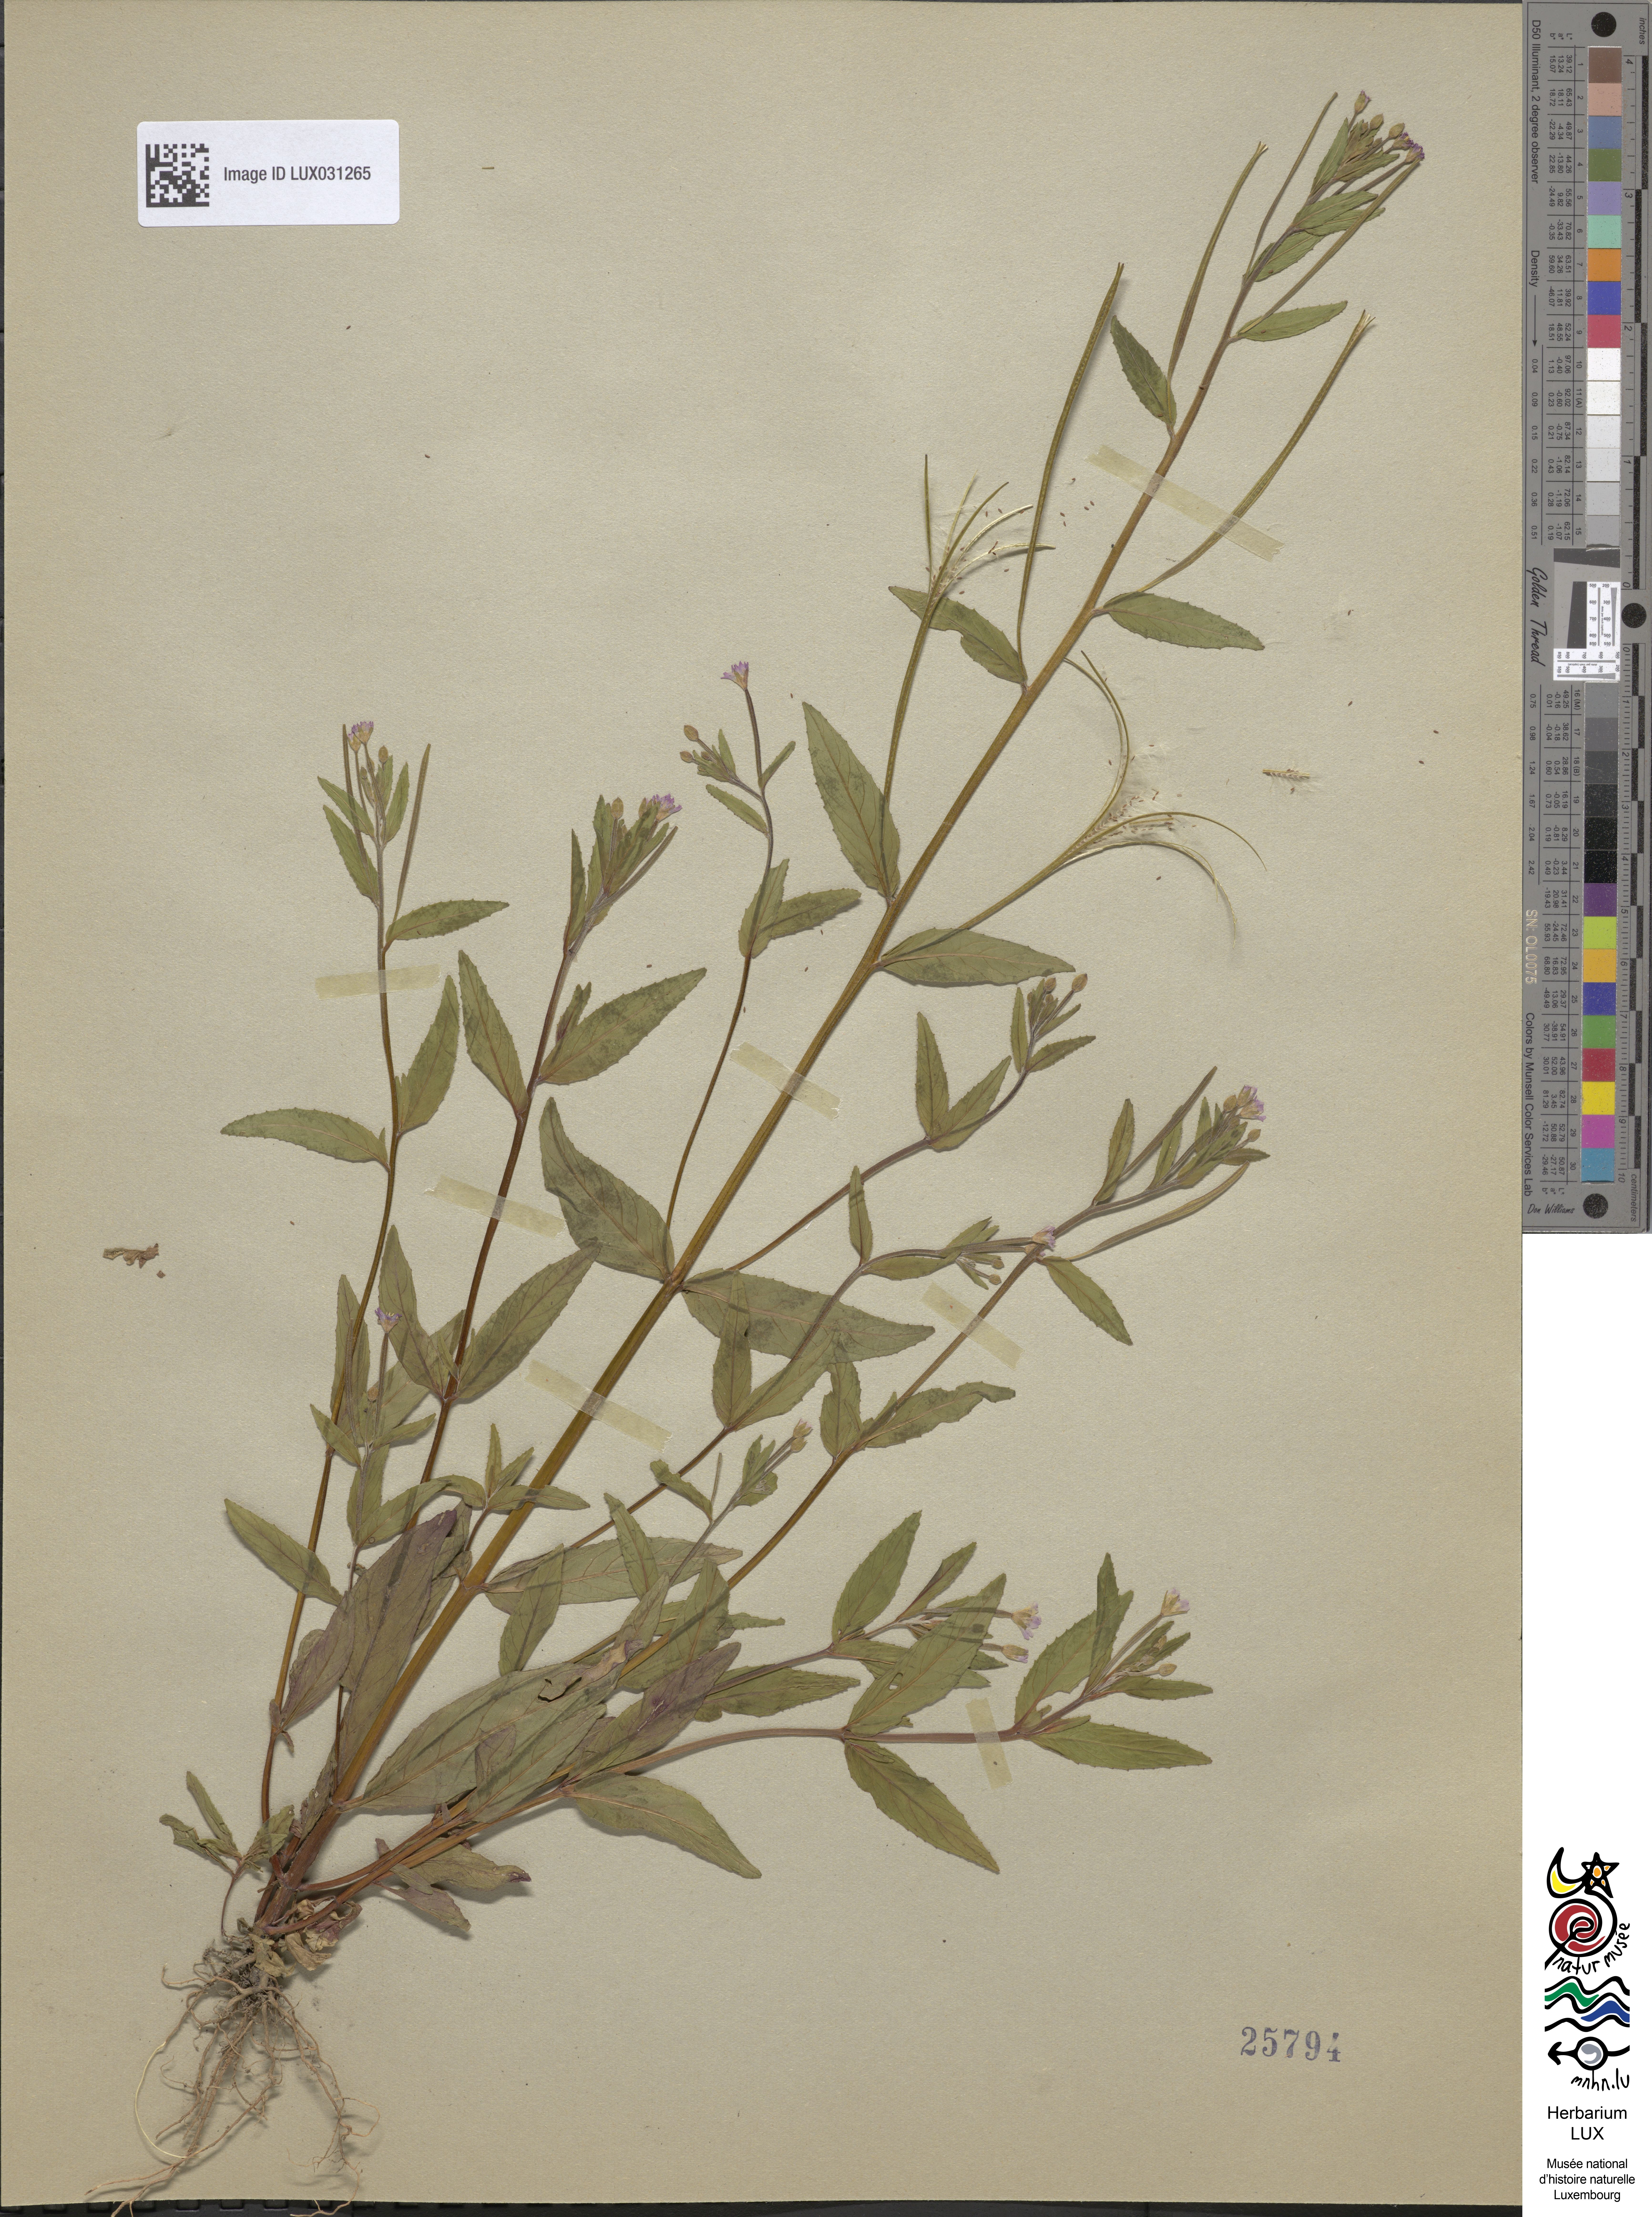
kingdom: Plantae
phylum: Tracheophyta
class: Magnoliopsida
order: Myrtales
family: Onagraceae
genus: Epilobium
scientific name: Epilobium ciliatum
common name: American willowherb
